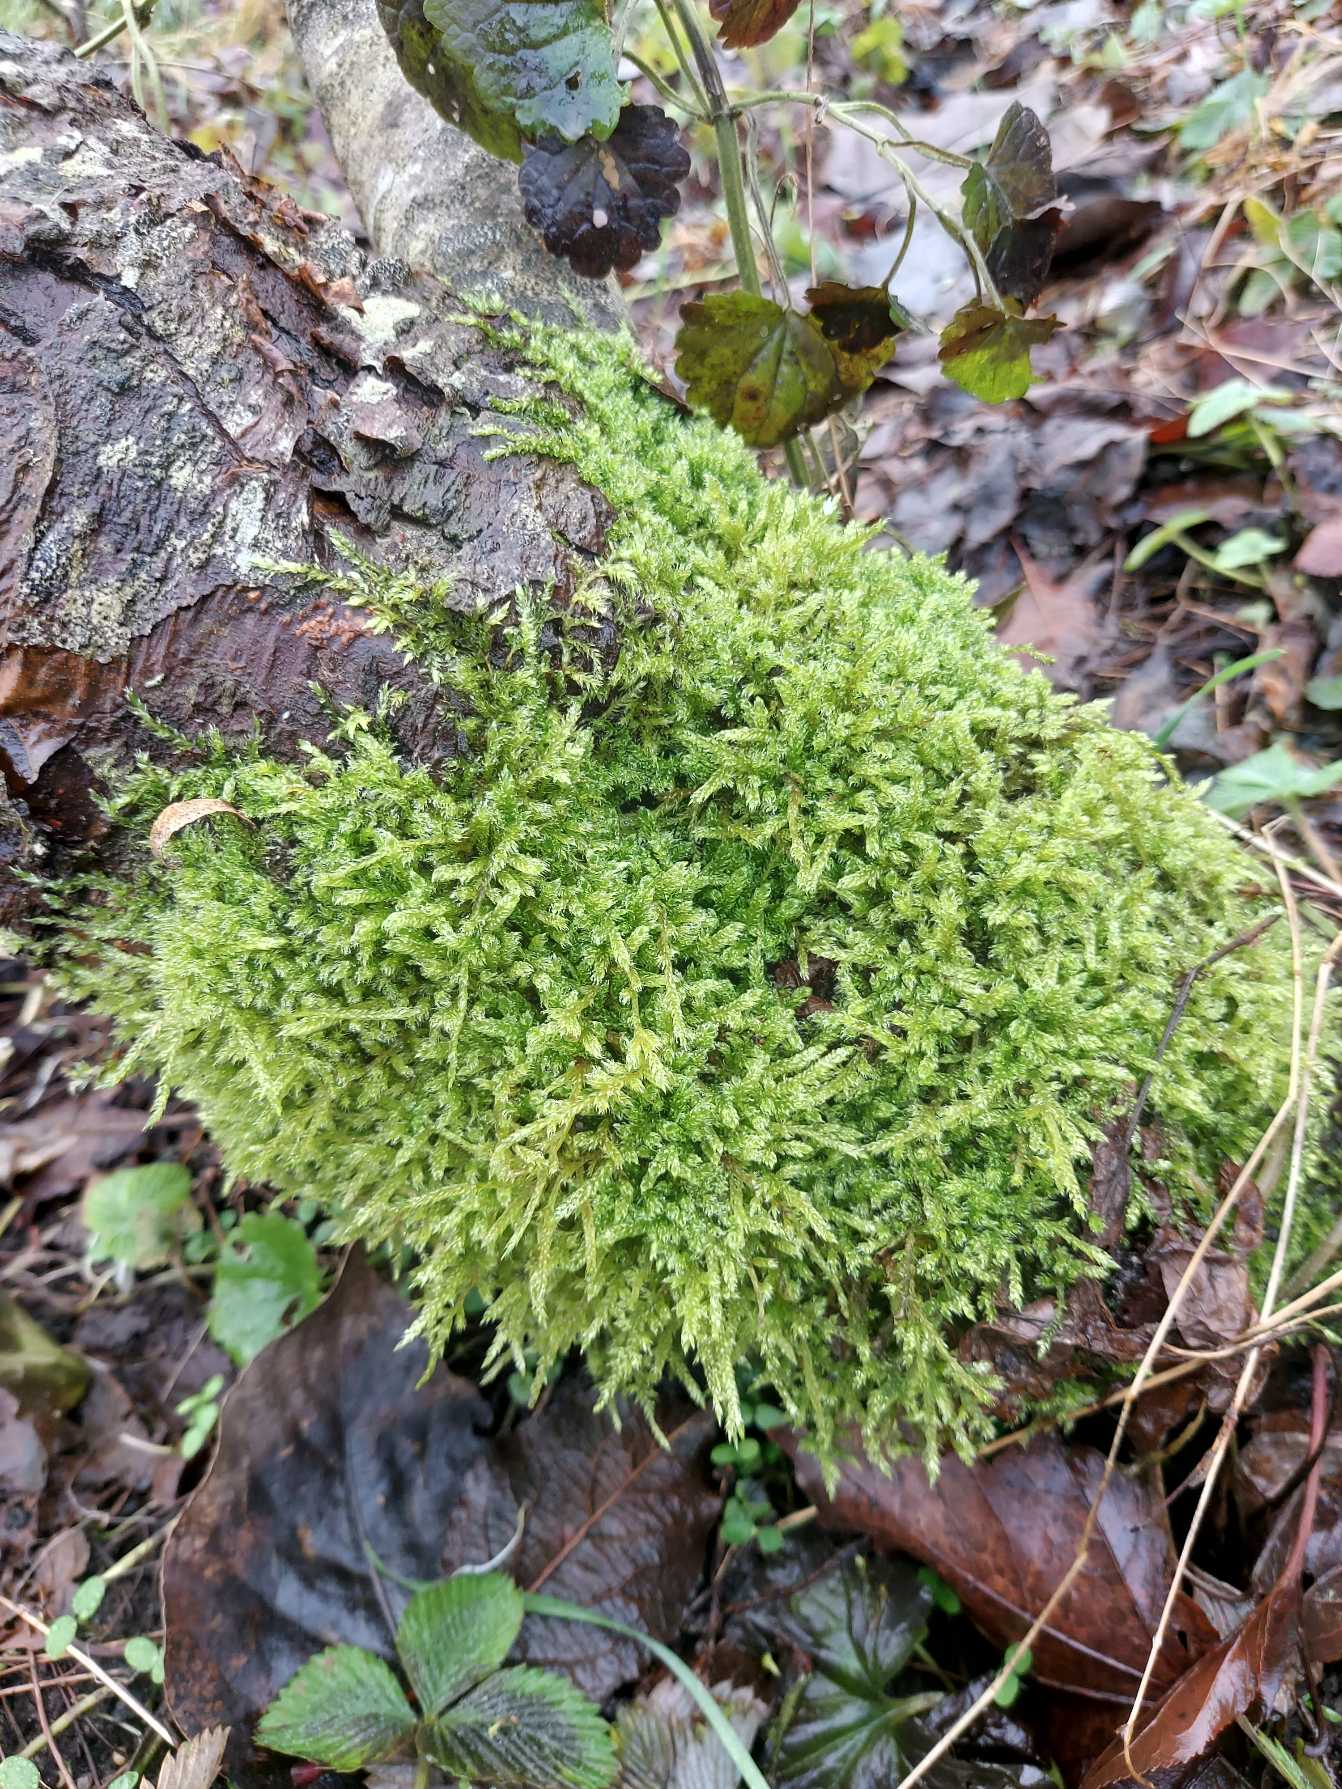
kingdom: Plantae
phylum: Bryophyta
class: Bryopsida
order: Hypnales
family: Hypnaceae
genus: Hypnum
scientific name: Hypnum cupressiforme
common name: Almindelig cypresmos
